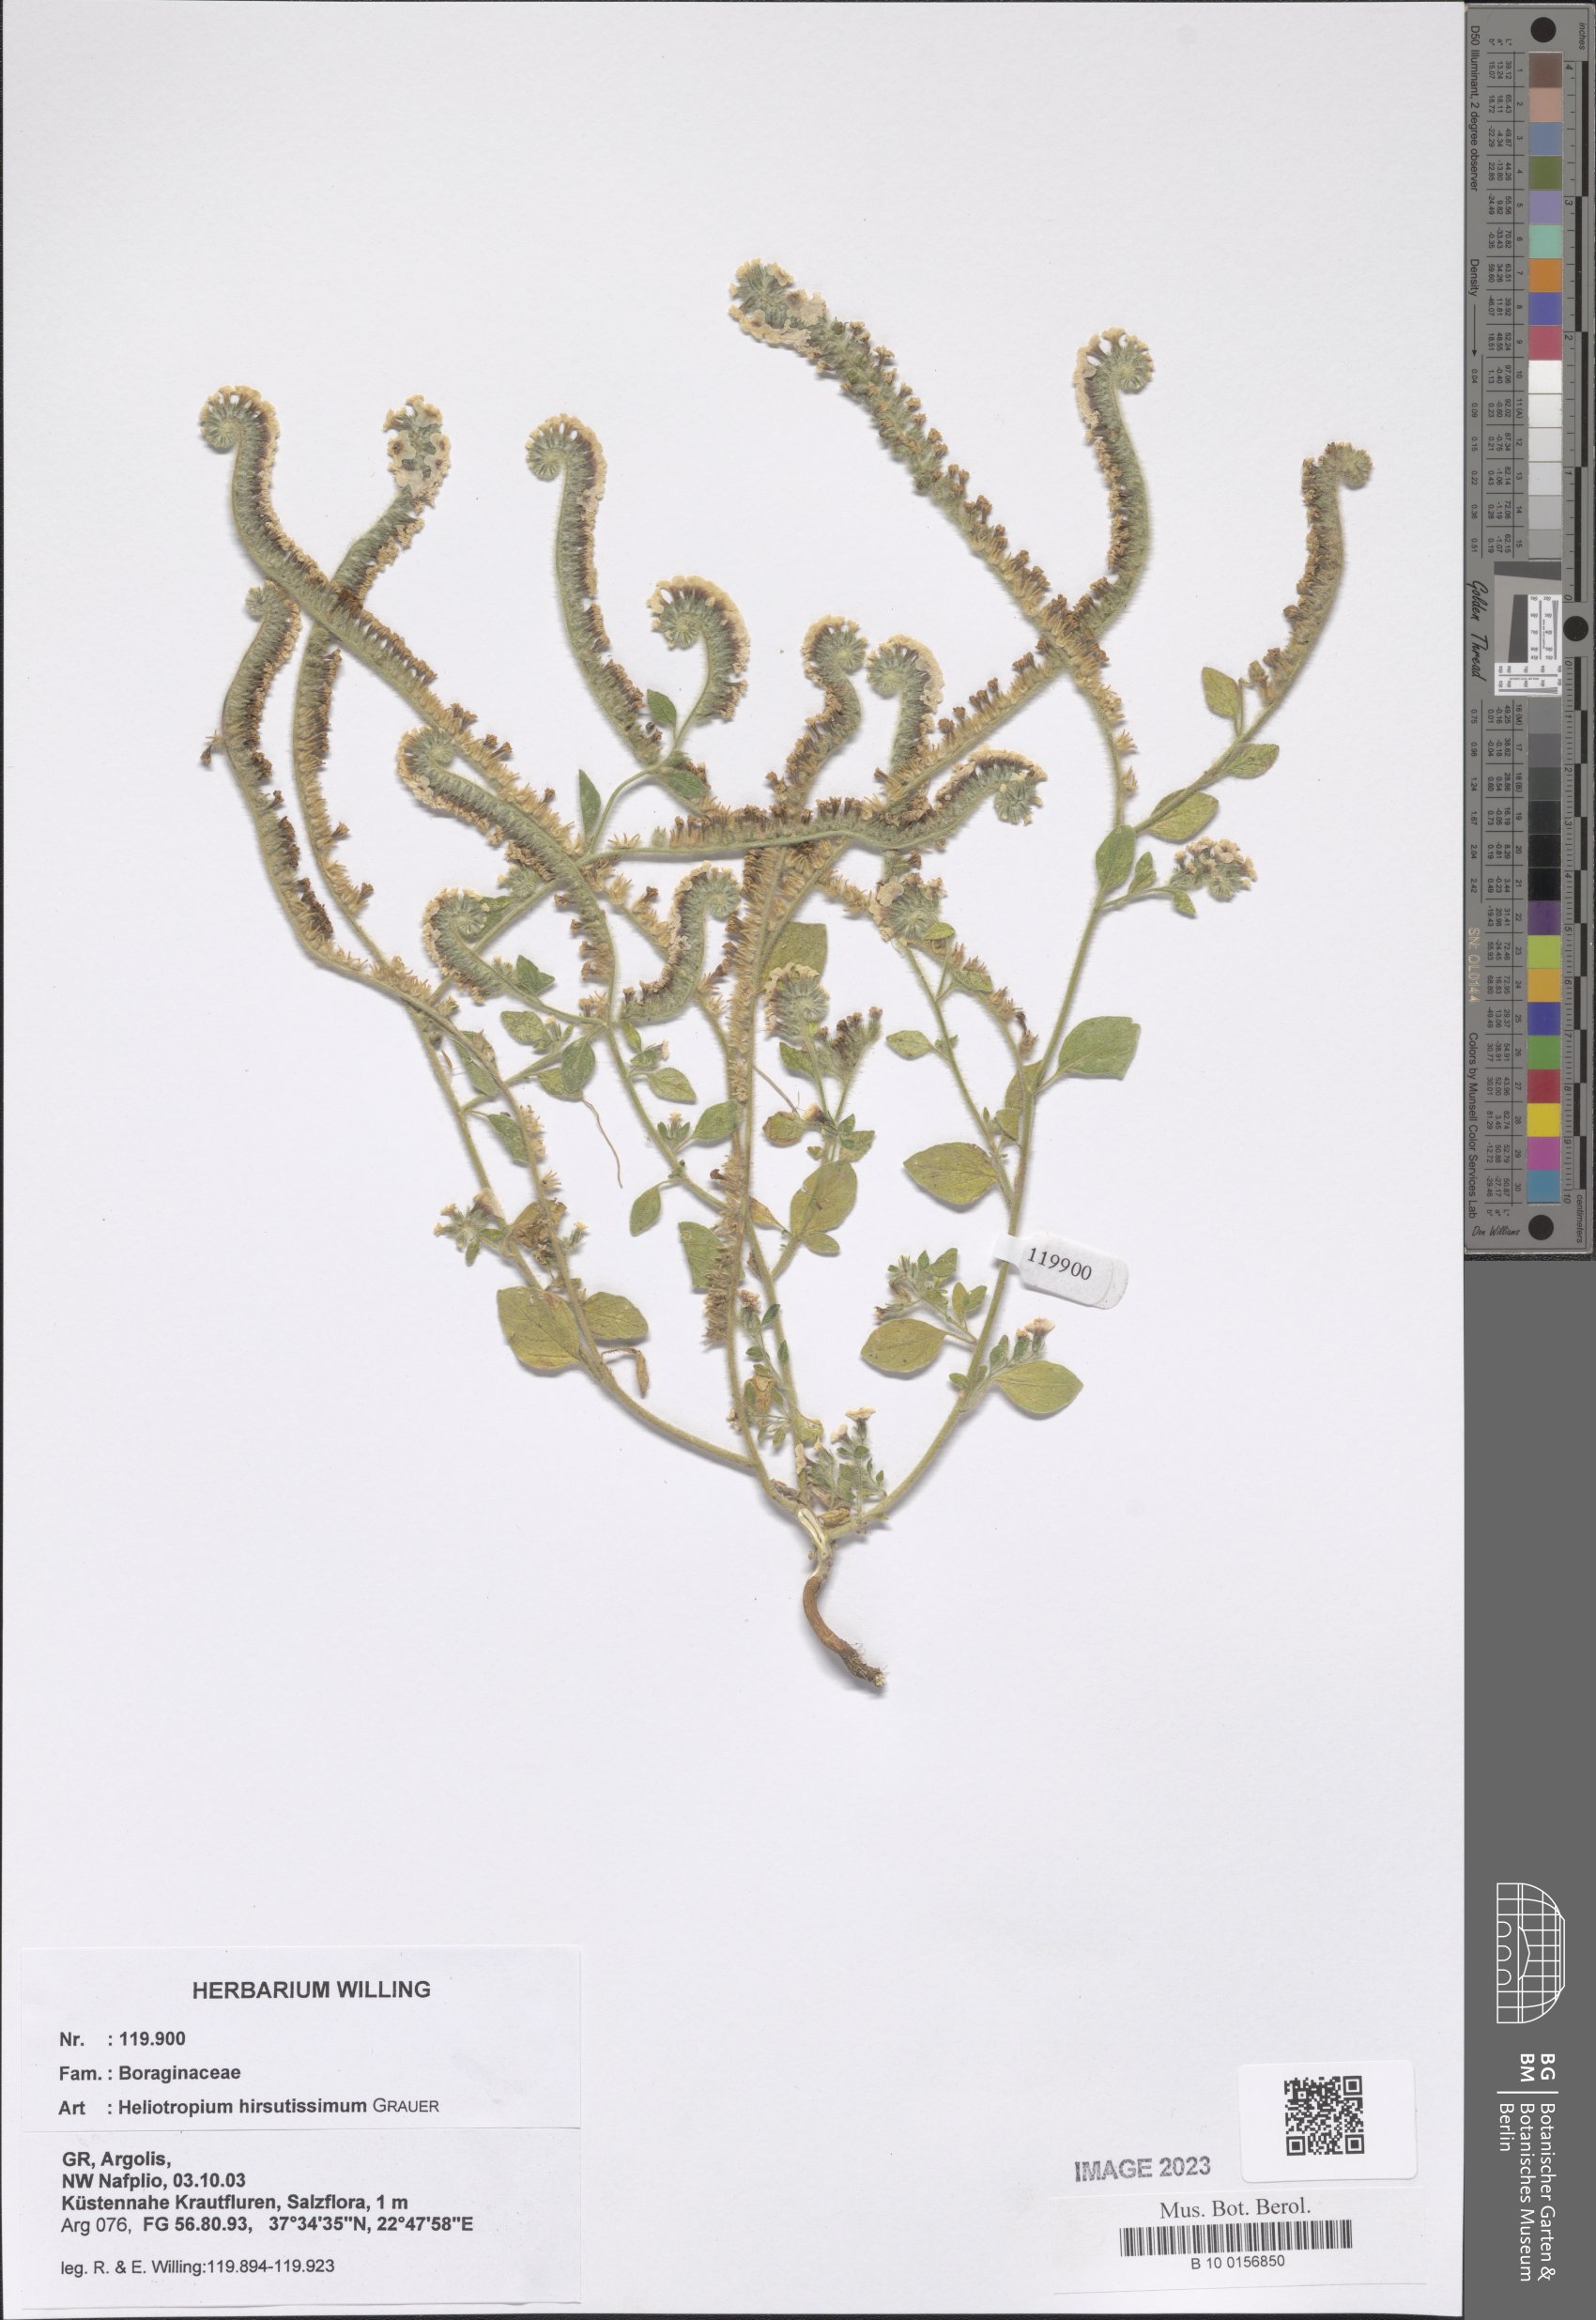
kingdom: Plantae
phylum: Tracheophyta
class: Magnoliopsida
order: Boraginales
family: Heliotropiaceae
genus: Heliotropium
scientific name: Heliotropium hirsutissimum
